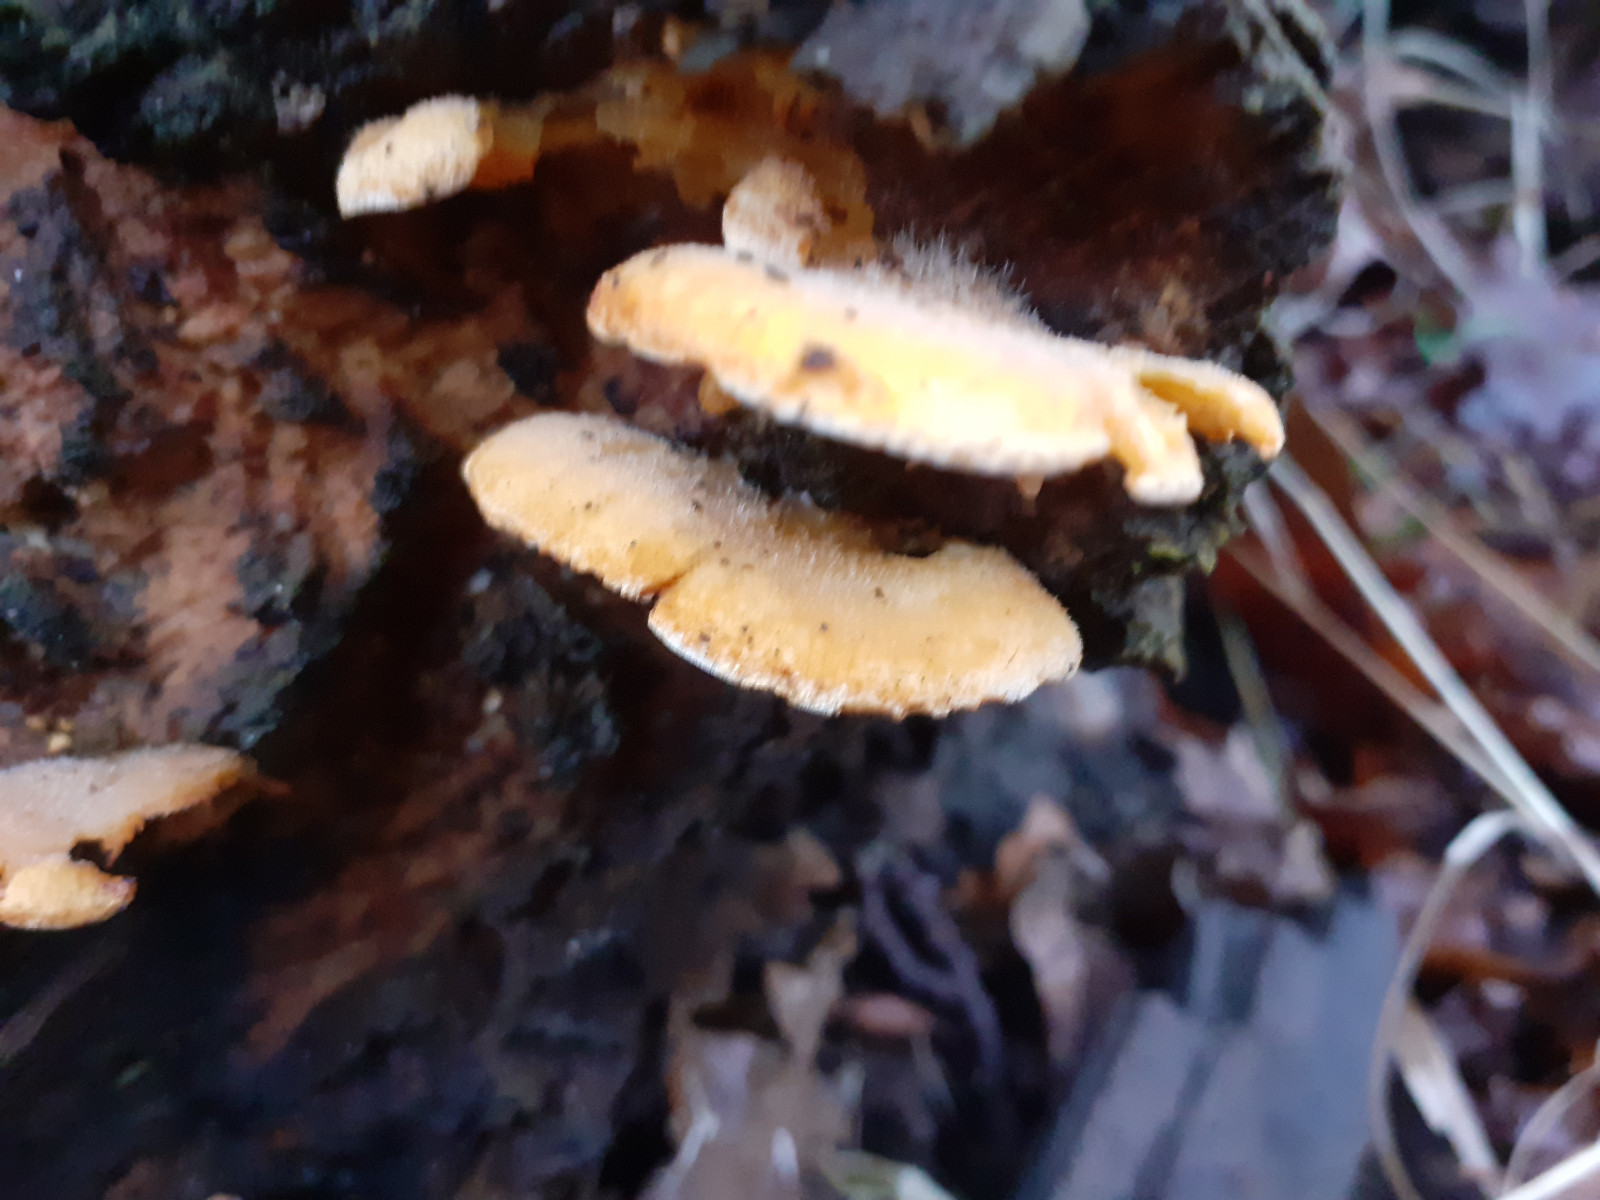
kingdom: Fungi
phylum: Basidiomycota
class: Agaricomycetes
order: Agaricales
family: Phyllotopsidaceae
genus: Phyllotopsis
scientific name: Phyllotopsis nidulans
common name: okkerblad
